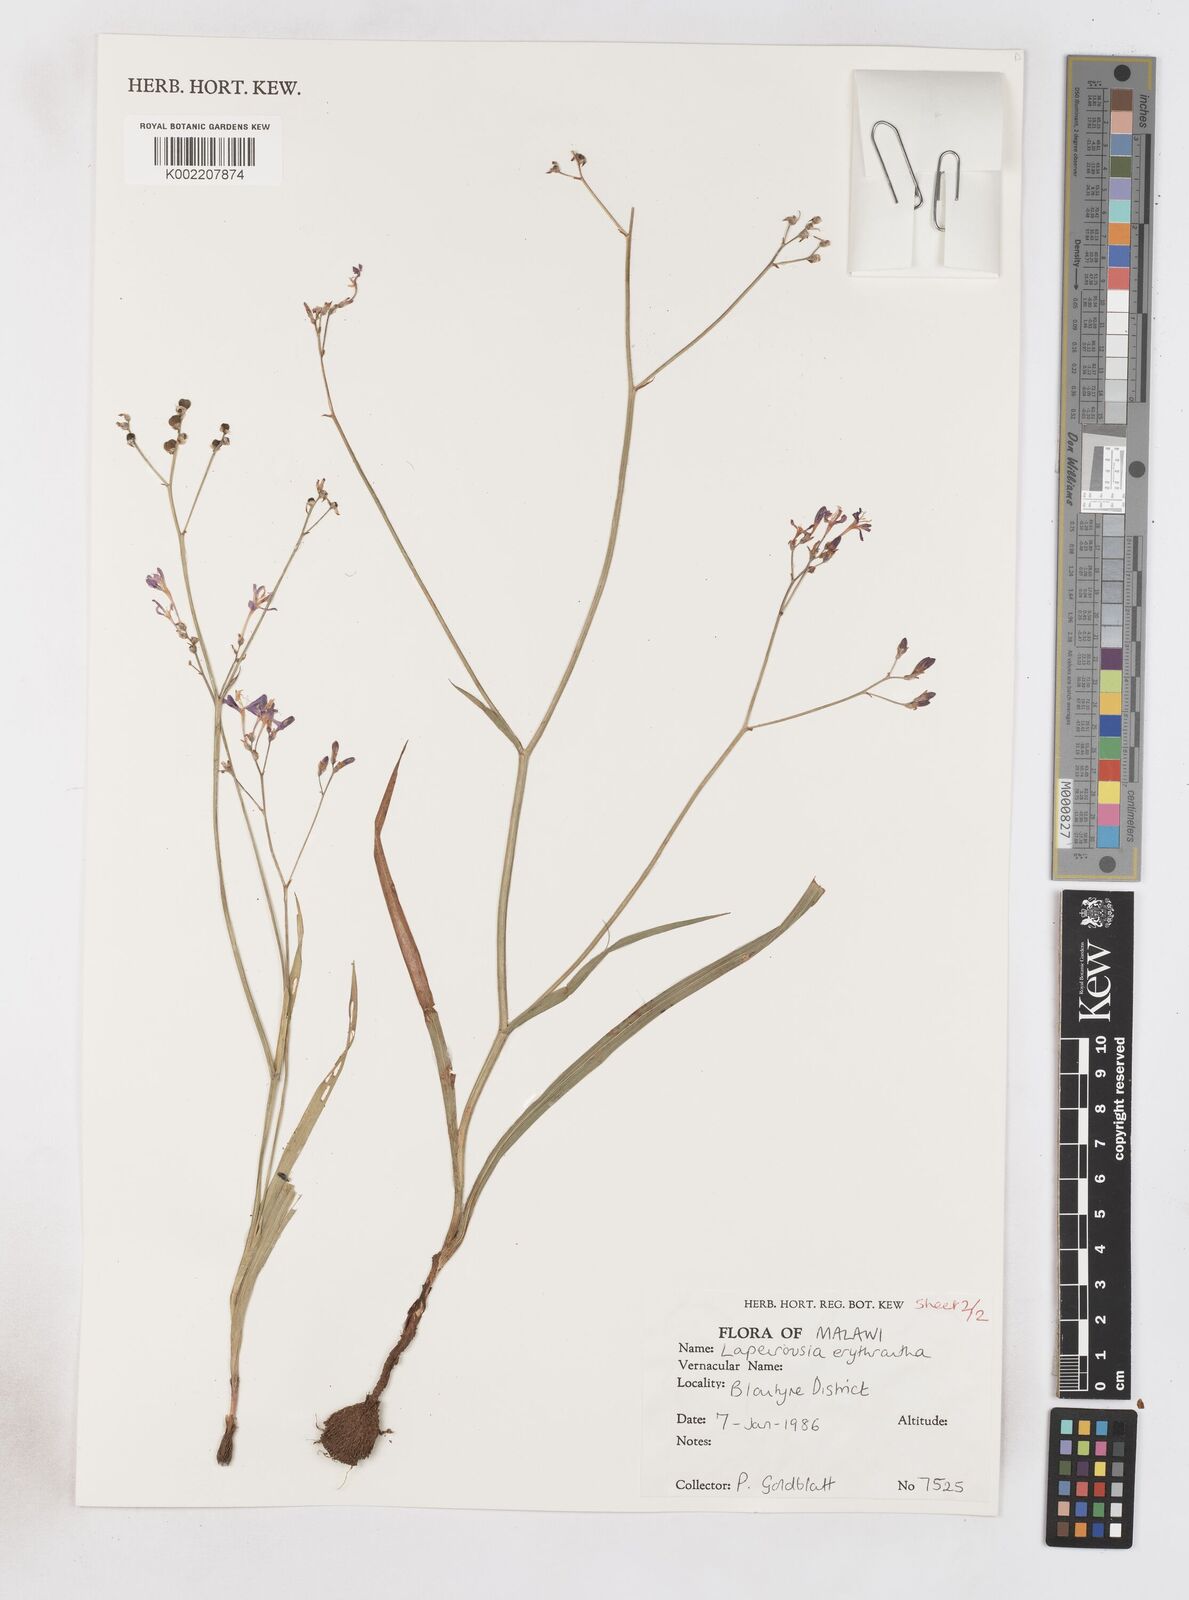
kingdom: Plantae
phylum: Tracheophyta
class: Liliopsida
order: Asparagales
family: Iridaceae
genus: Afrosolen
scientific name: Afrosolen erythranthus
